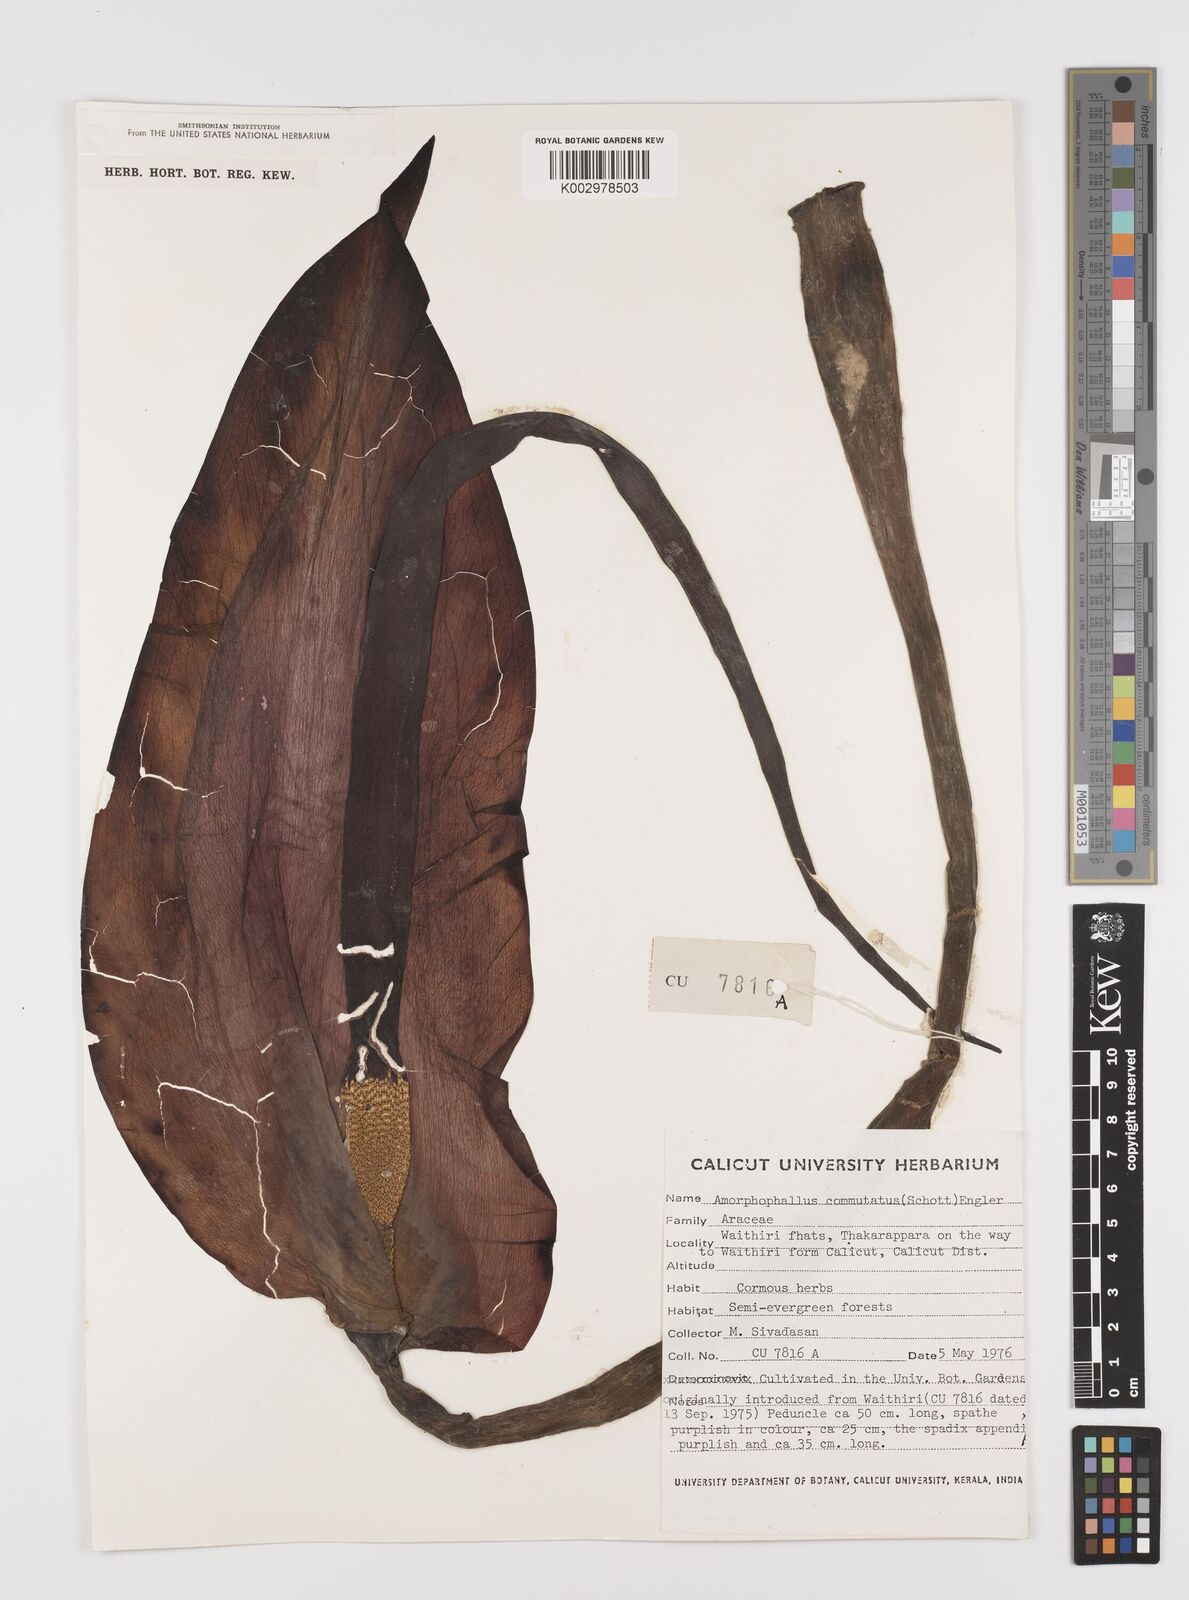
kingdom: Plantae
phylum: Tracheophyta
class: Liliopsida
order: Alismatales
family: Araceae
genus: Amorphophallus
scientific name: Amorphophallus commutatus
